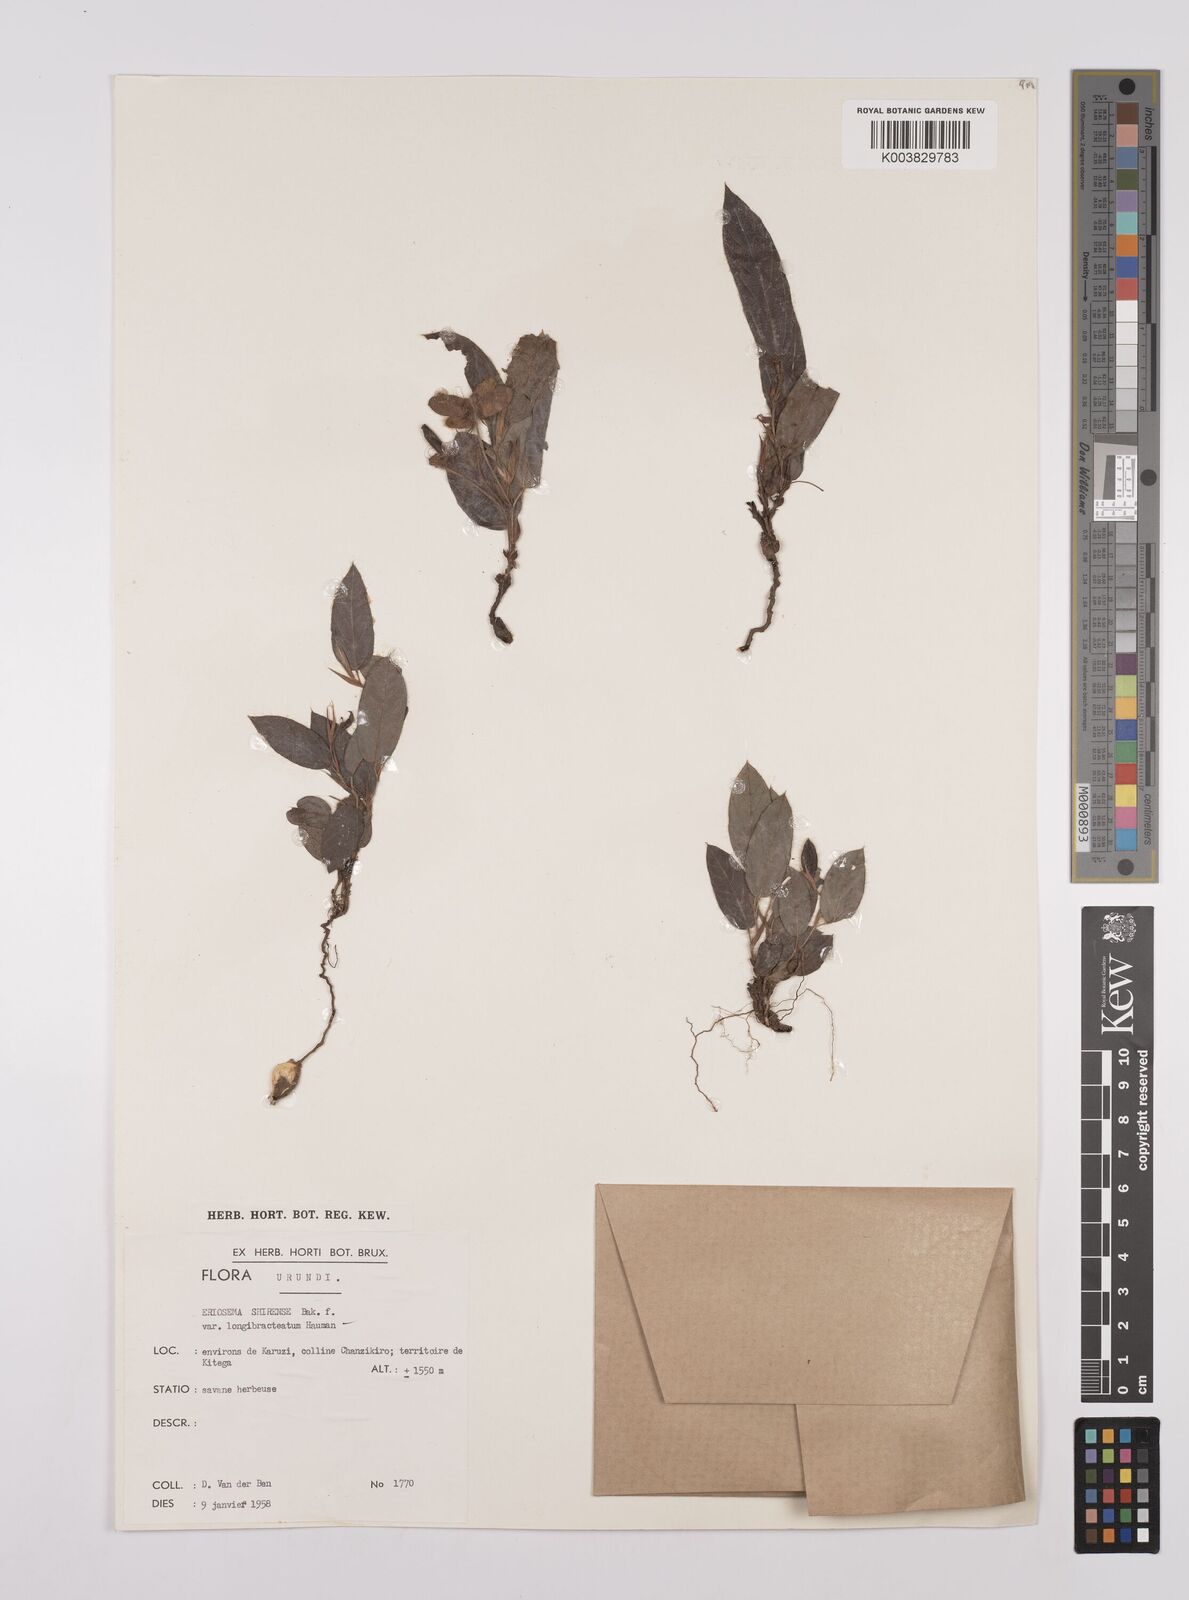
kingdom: Plantae
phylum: Tracheophyta
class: Magnoliopsida
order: Fabales
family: Fabaceae
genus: Eriosema
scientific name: Eriosema shirense
